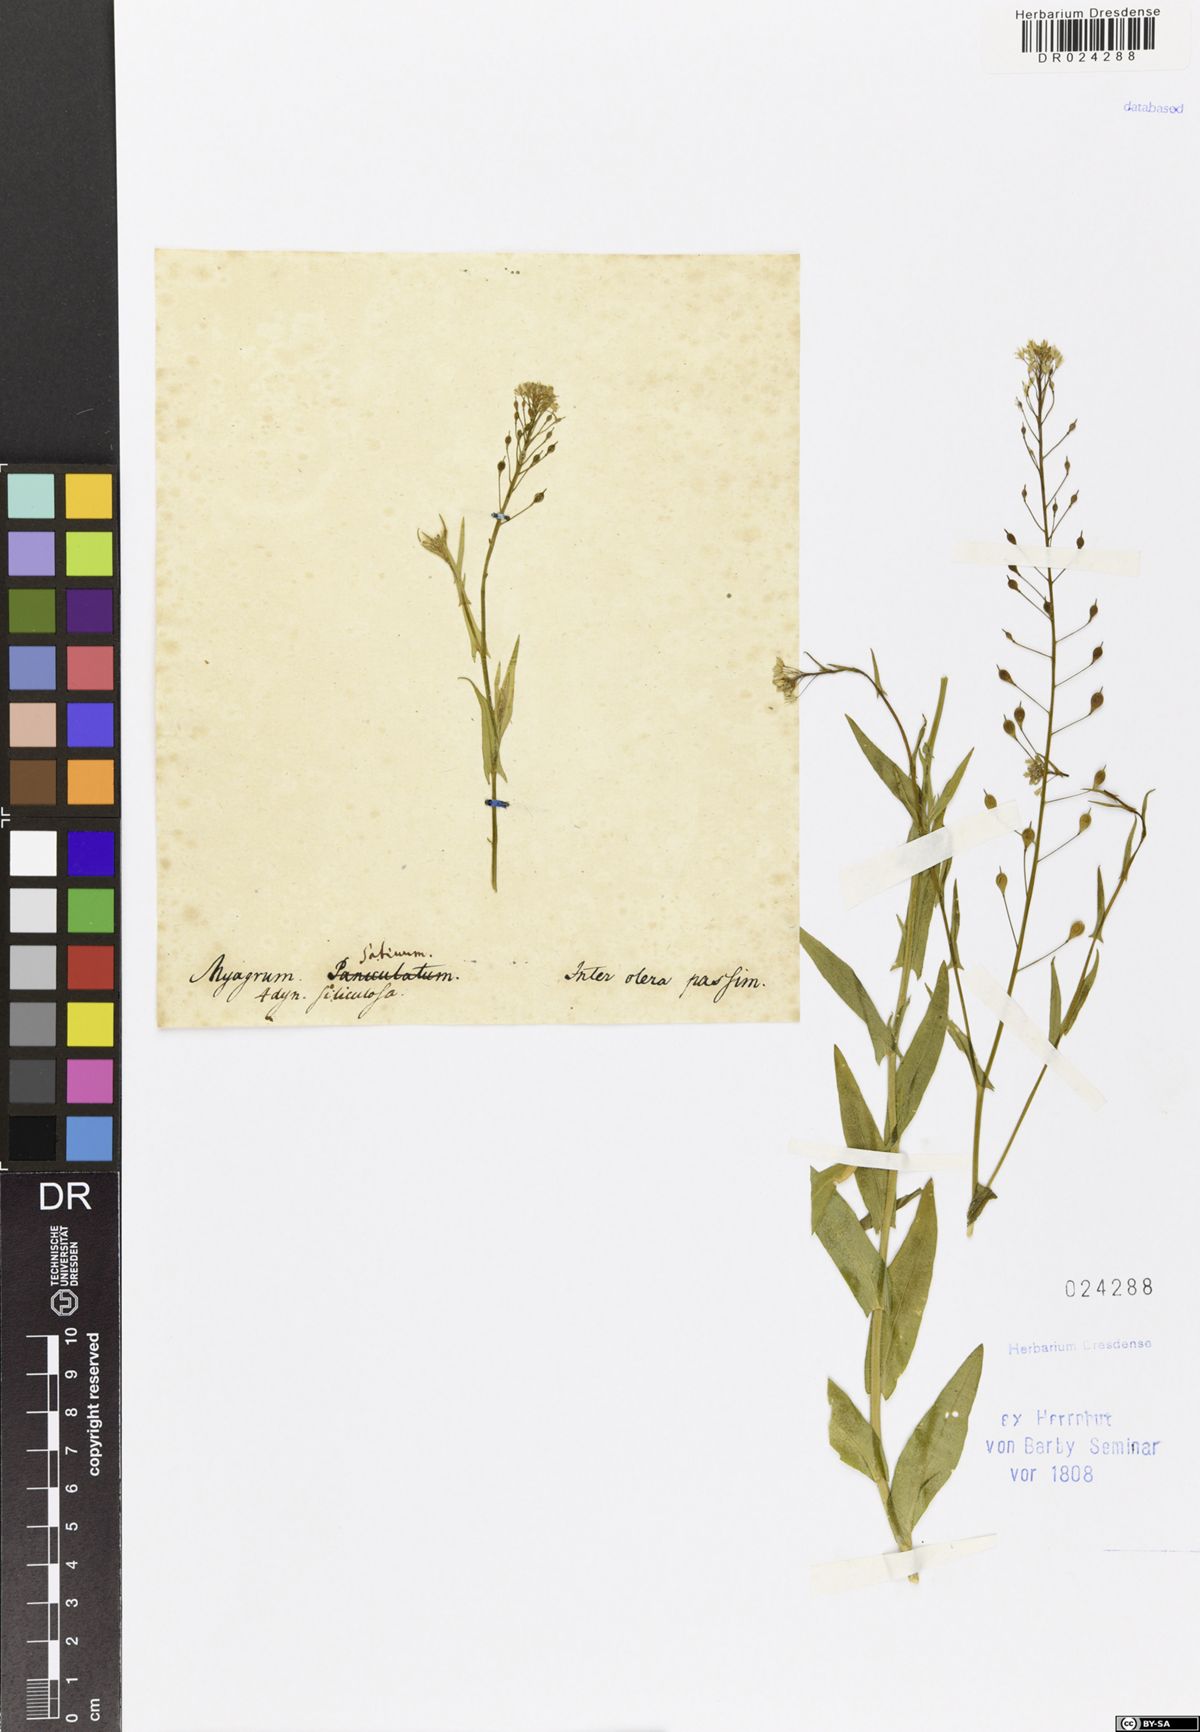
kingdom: Plantae
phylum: Tracheophyta
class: Magnoliopsida
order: Brassicales
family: Brassicaceae
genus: Camelina
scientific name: Camelina microcarpa
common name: Lesser gold-of-pleasure
